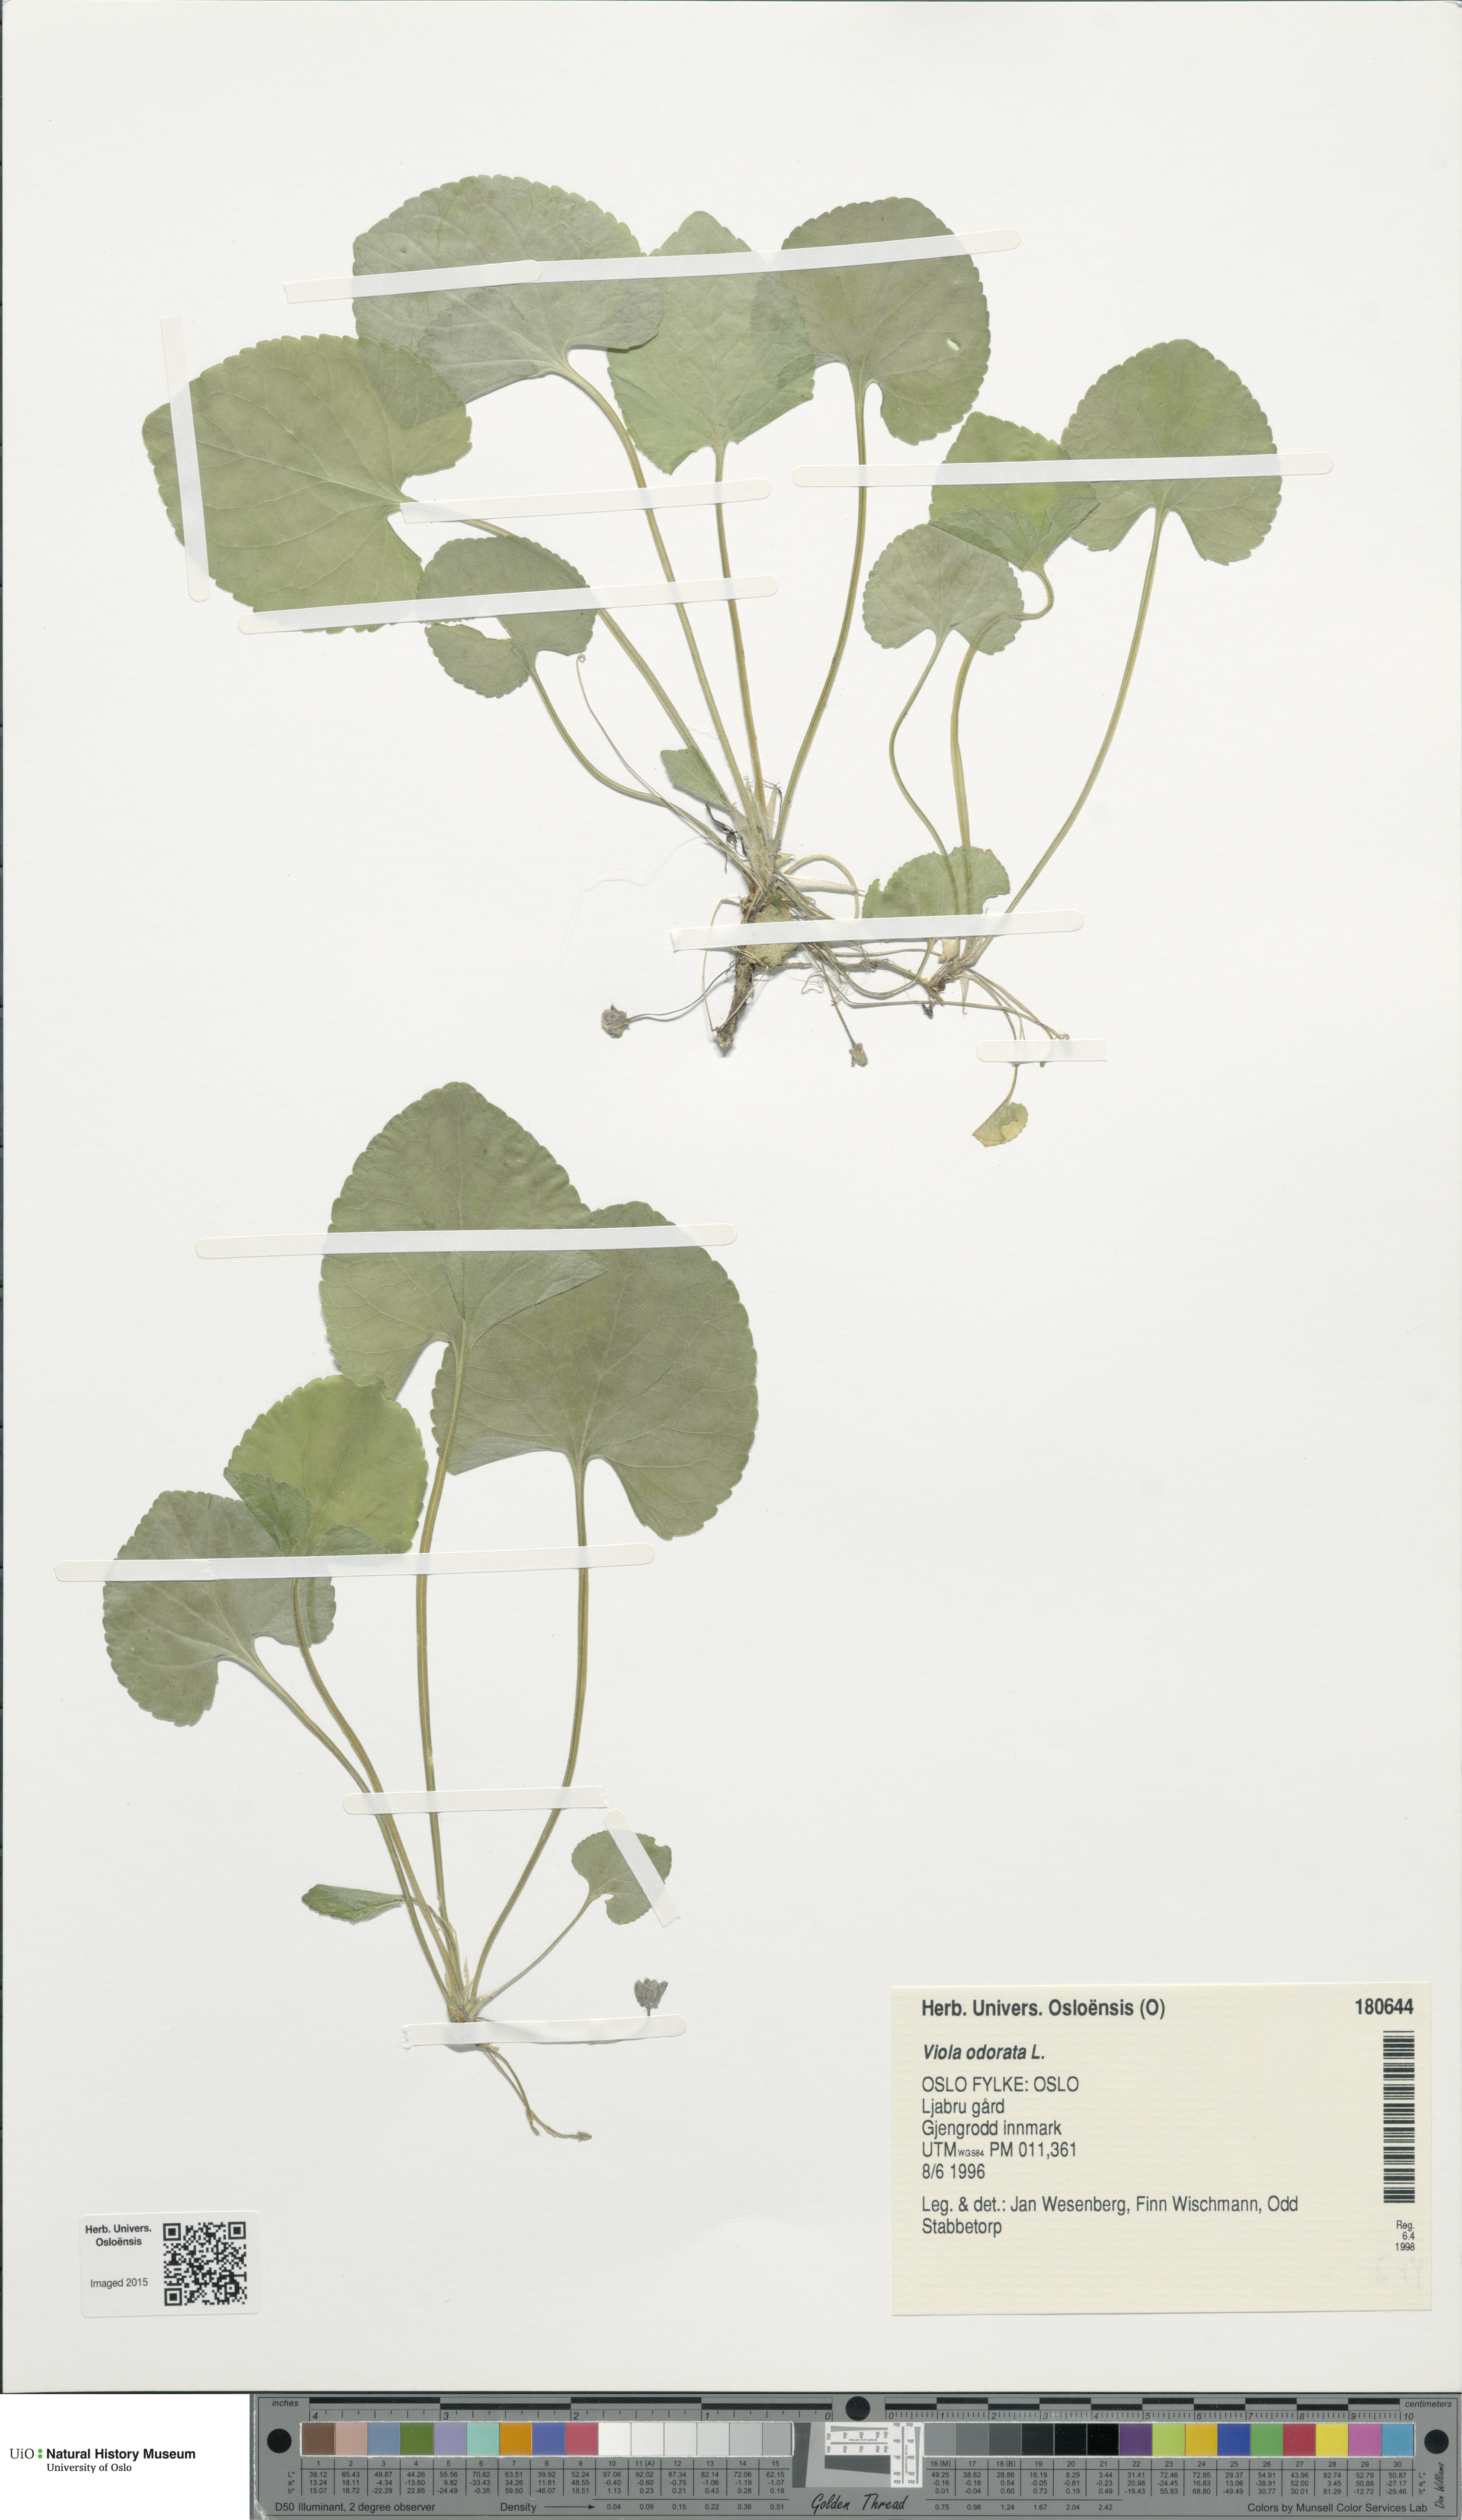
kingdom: Plantae
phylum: Tracheophyta
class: Magnoliopsida
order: Malpighiales
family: Violaceae
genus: Viola
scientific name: Viola odorata
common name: Sweet violet
